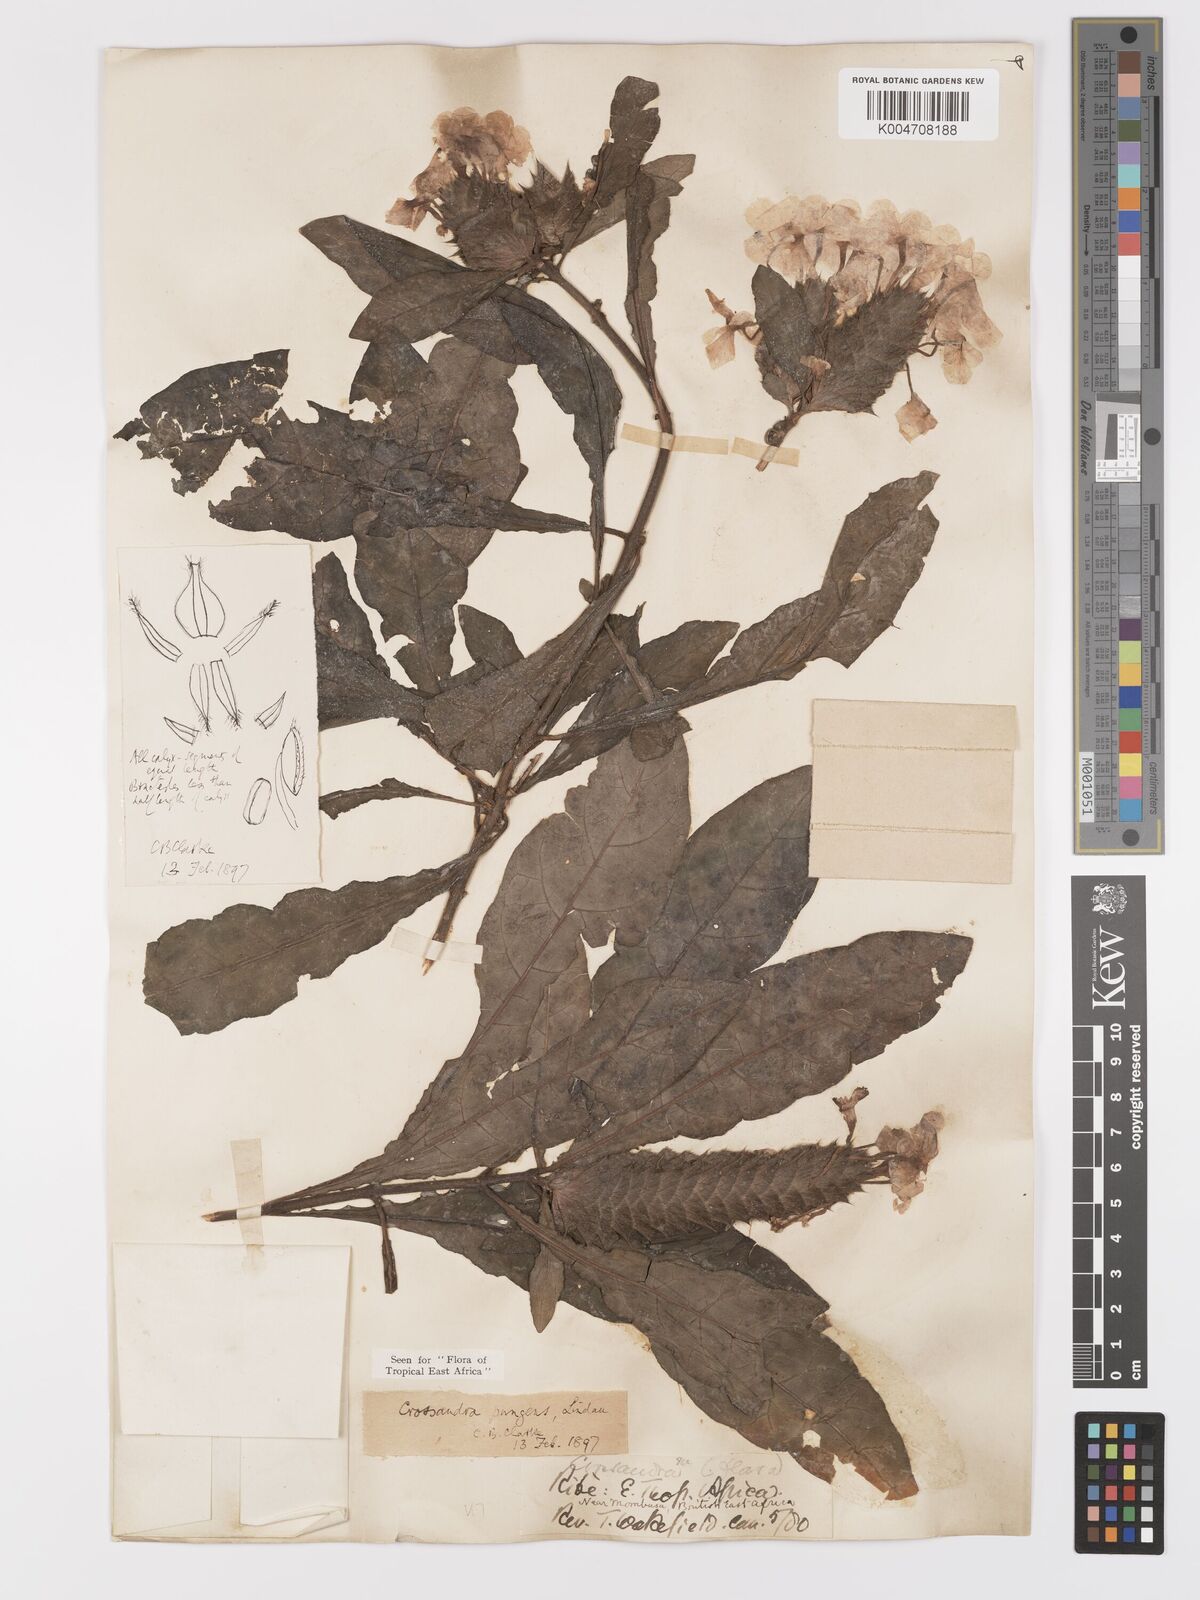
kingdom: Plantae
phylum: Tracheophyta
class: Magnoliopsida
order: Lamiales
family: Acanthaceae
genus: Crossandra
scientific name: Crossandra pungens
